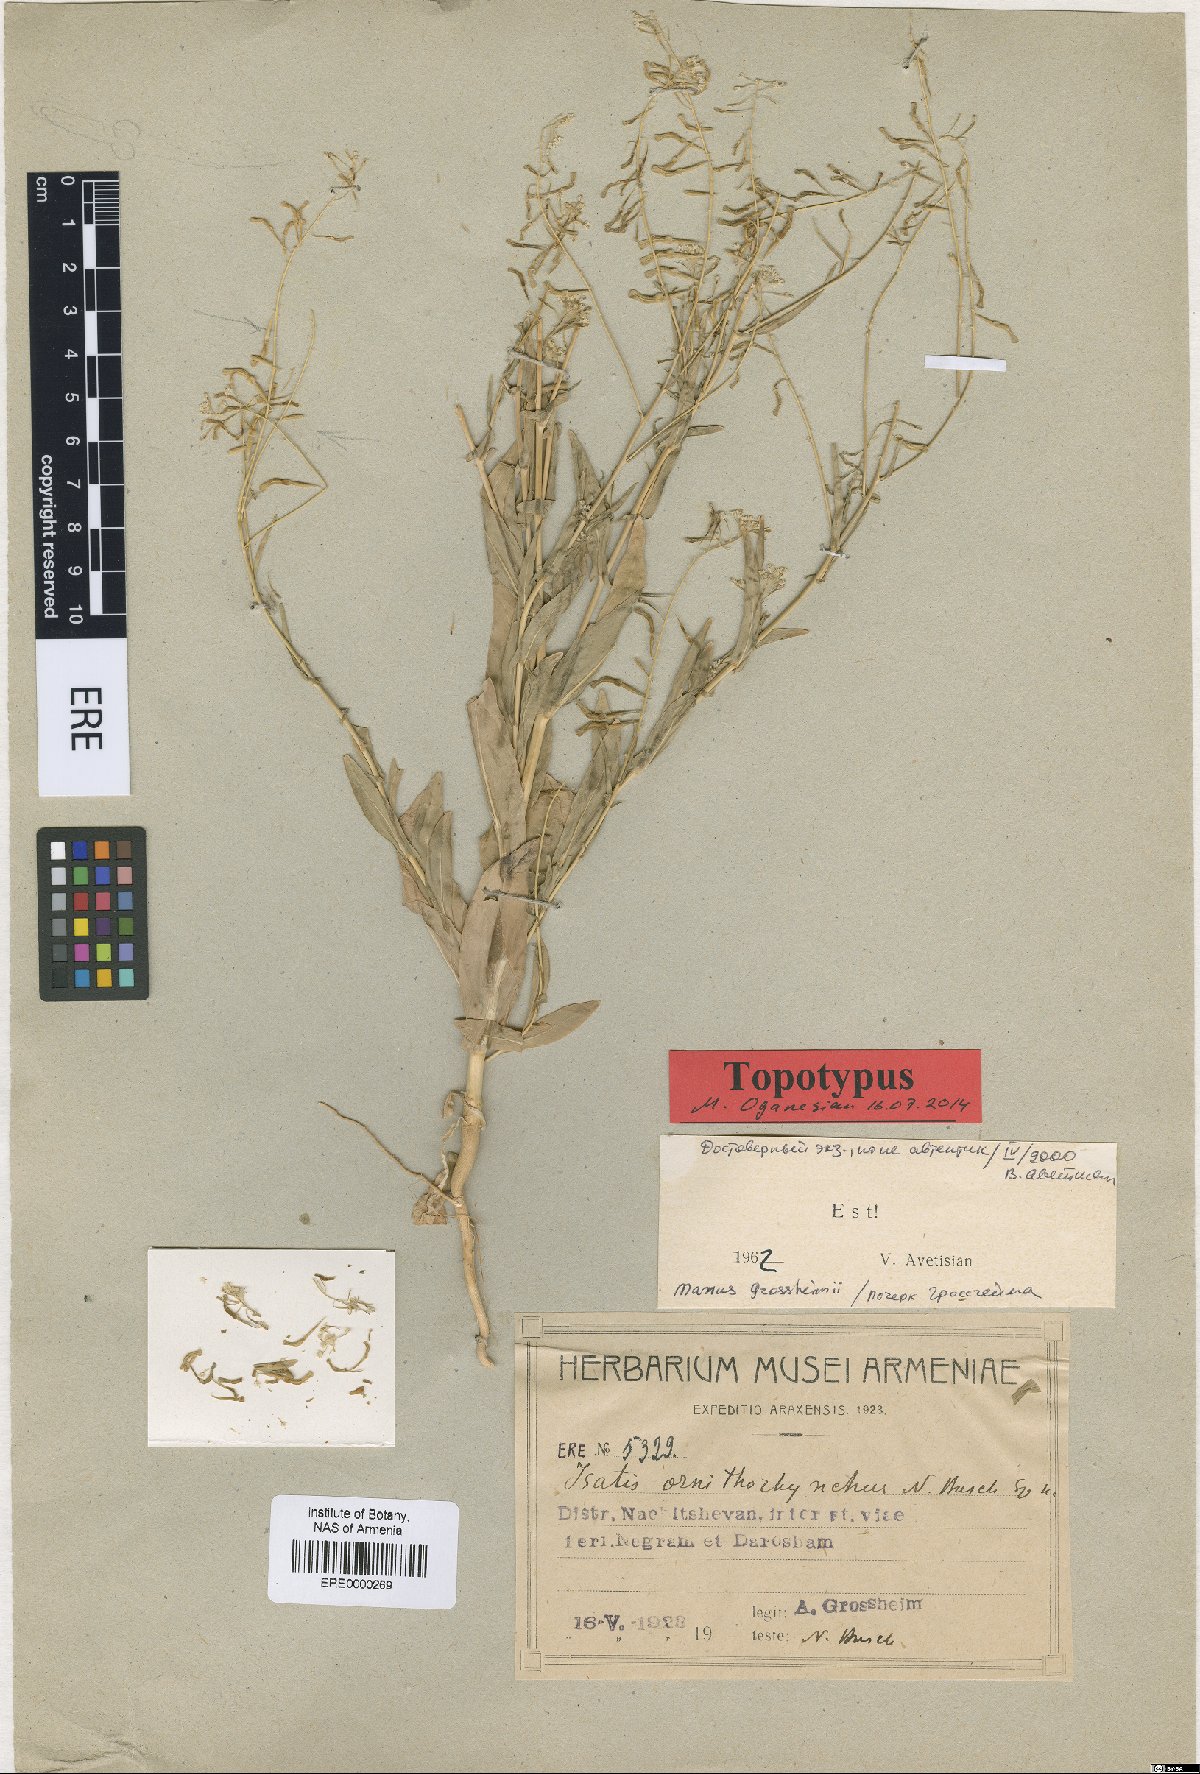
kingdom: Plantae
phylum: Tracheophyta
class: Magnoliopsida
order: Brassicales
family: Brassicaceae
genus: Isatis
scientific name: Isatis ornithorhynchus
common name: Ornithorhynchous woad
